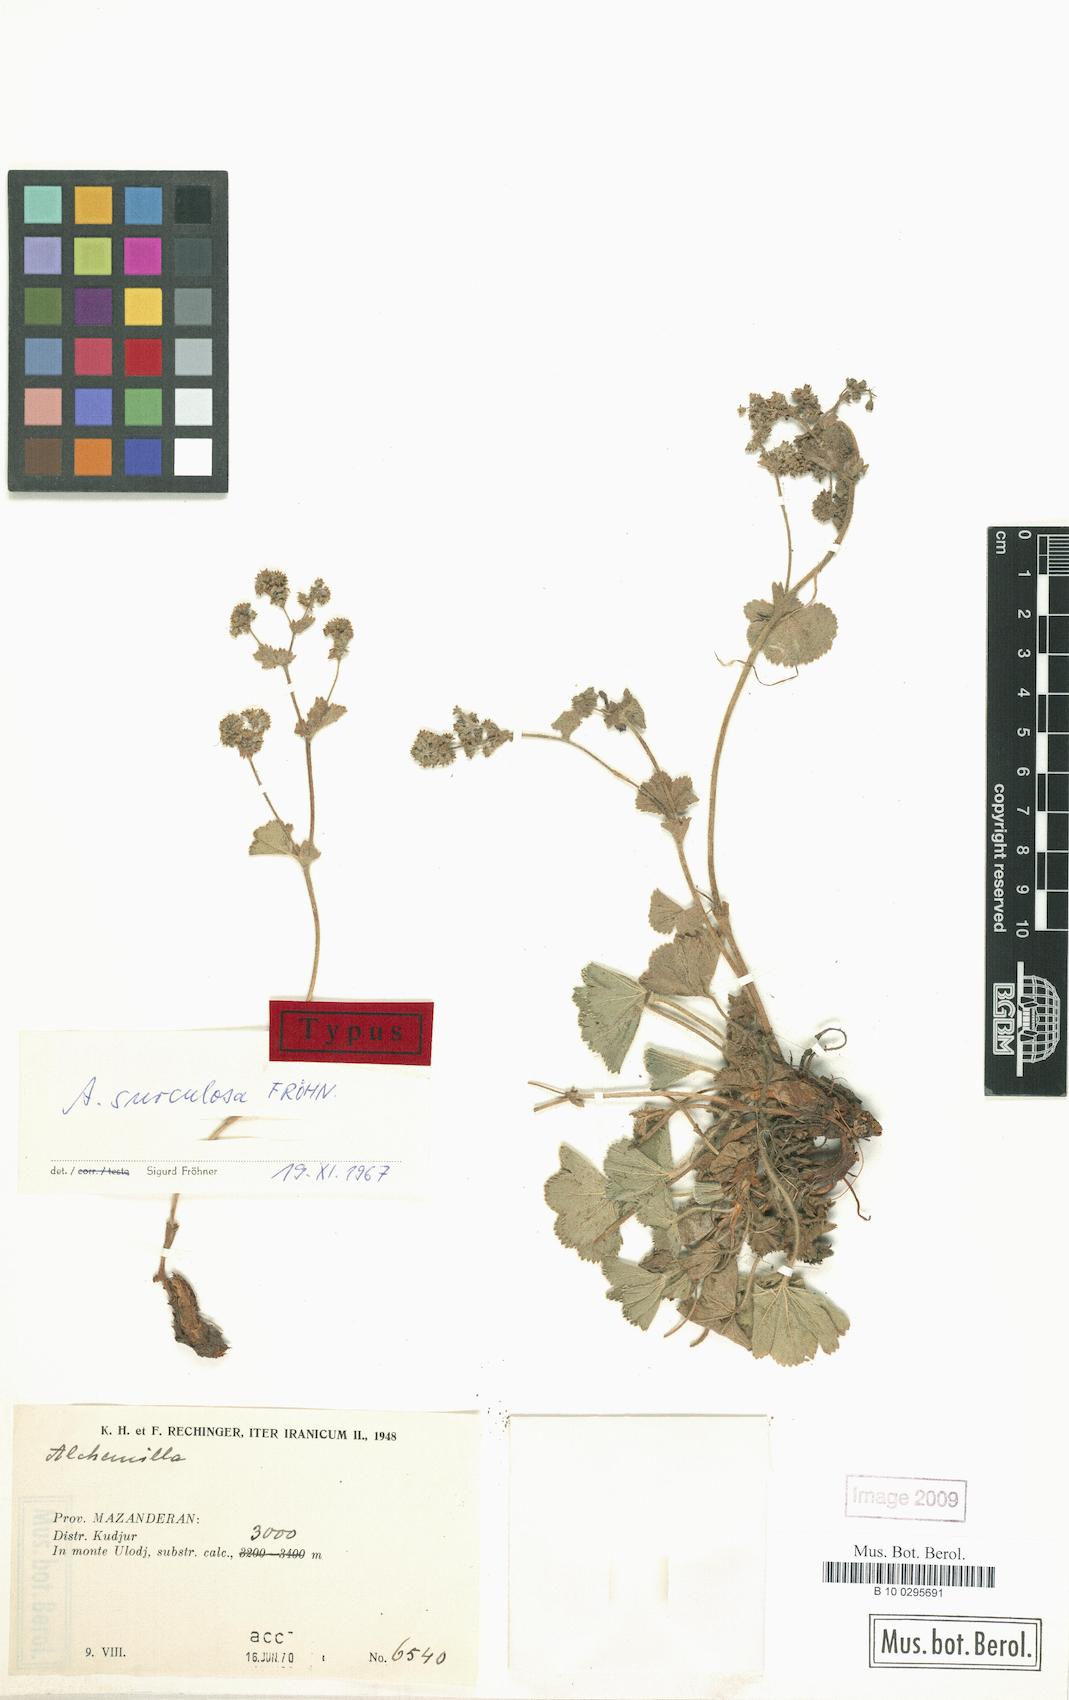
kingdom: Plantae
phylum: Tracheophyta
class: Magnoliopsida
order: Rosales
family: Rosaceae
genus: Alchemilla
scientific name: Alchemilla surculosa
